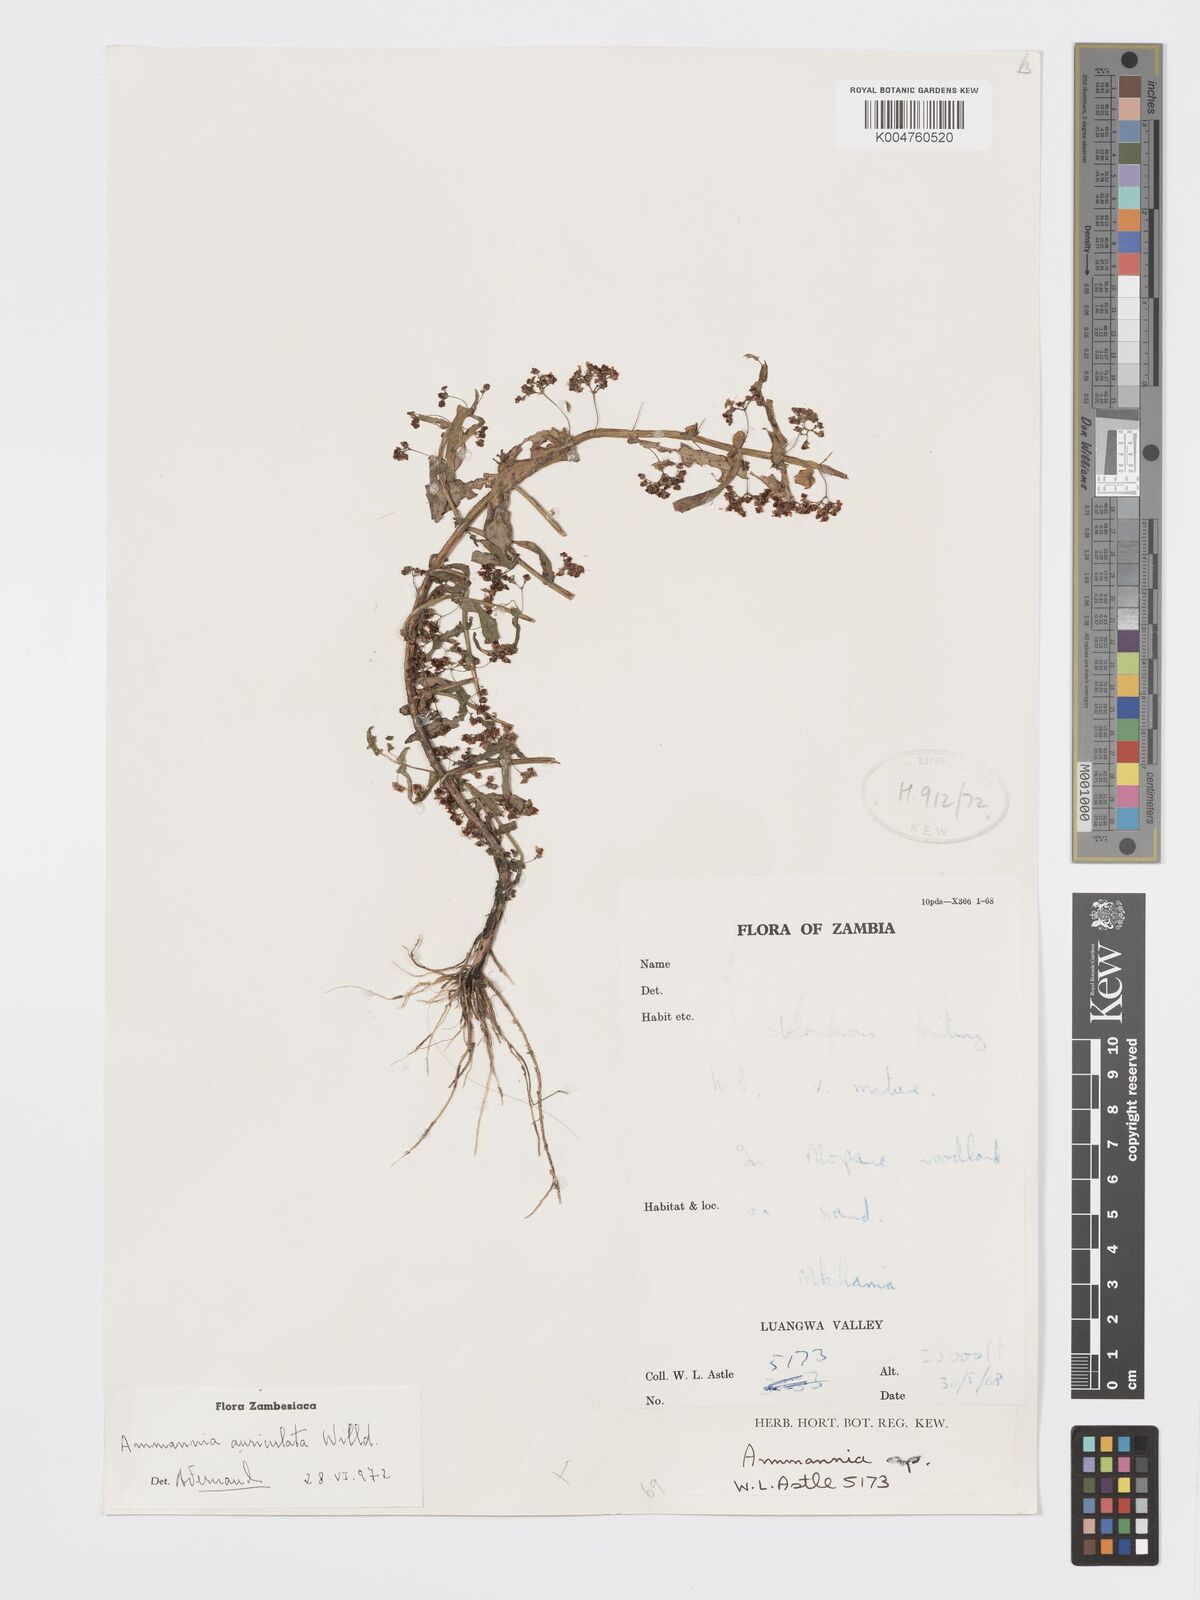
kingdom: Plantae
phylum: Tracheophyta
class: Magnoliopsida
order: Myrtales
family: Lythraceae
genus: Ammannia
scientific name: Ammannia auriculata
